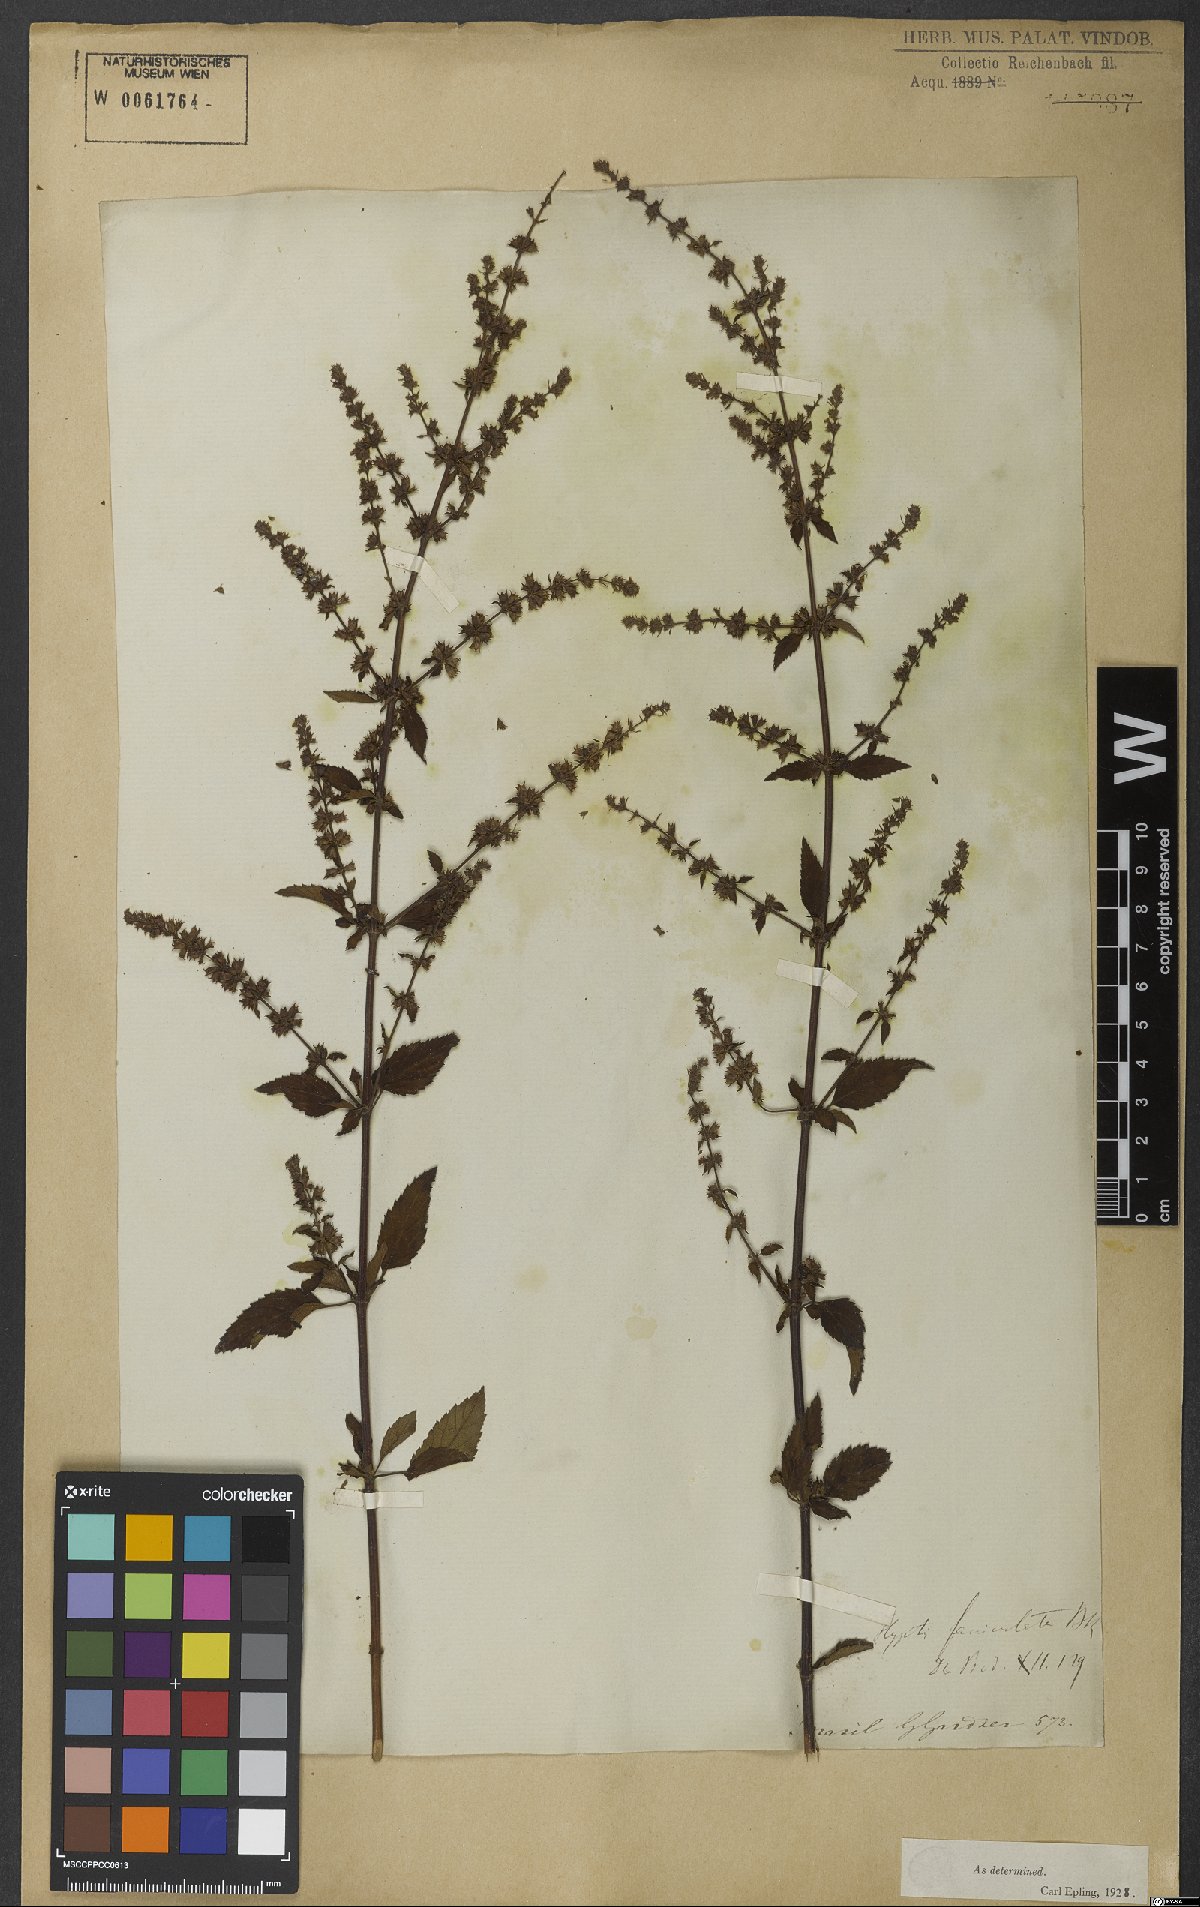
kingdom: Plantae
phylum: Tracheophyta
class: Magnoliopsida
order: Lamiales
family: Lamiaceae
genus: Condea
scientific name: Condea undulata
